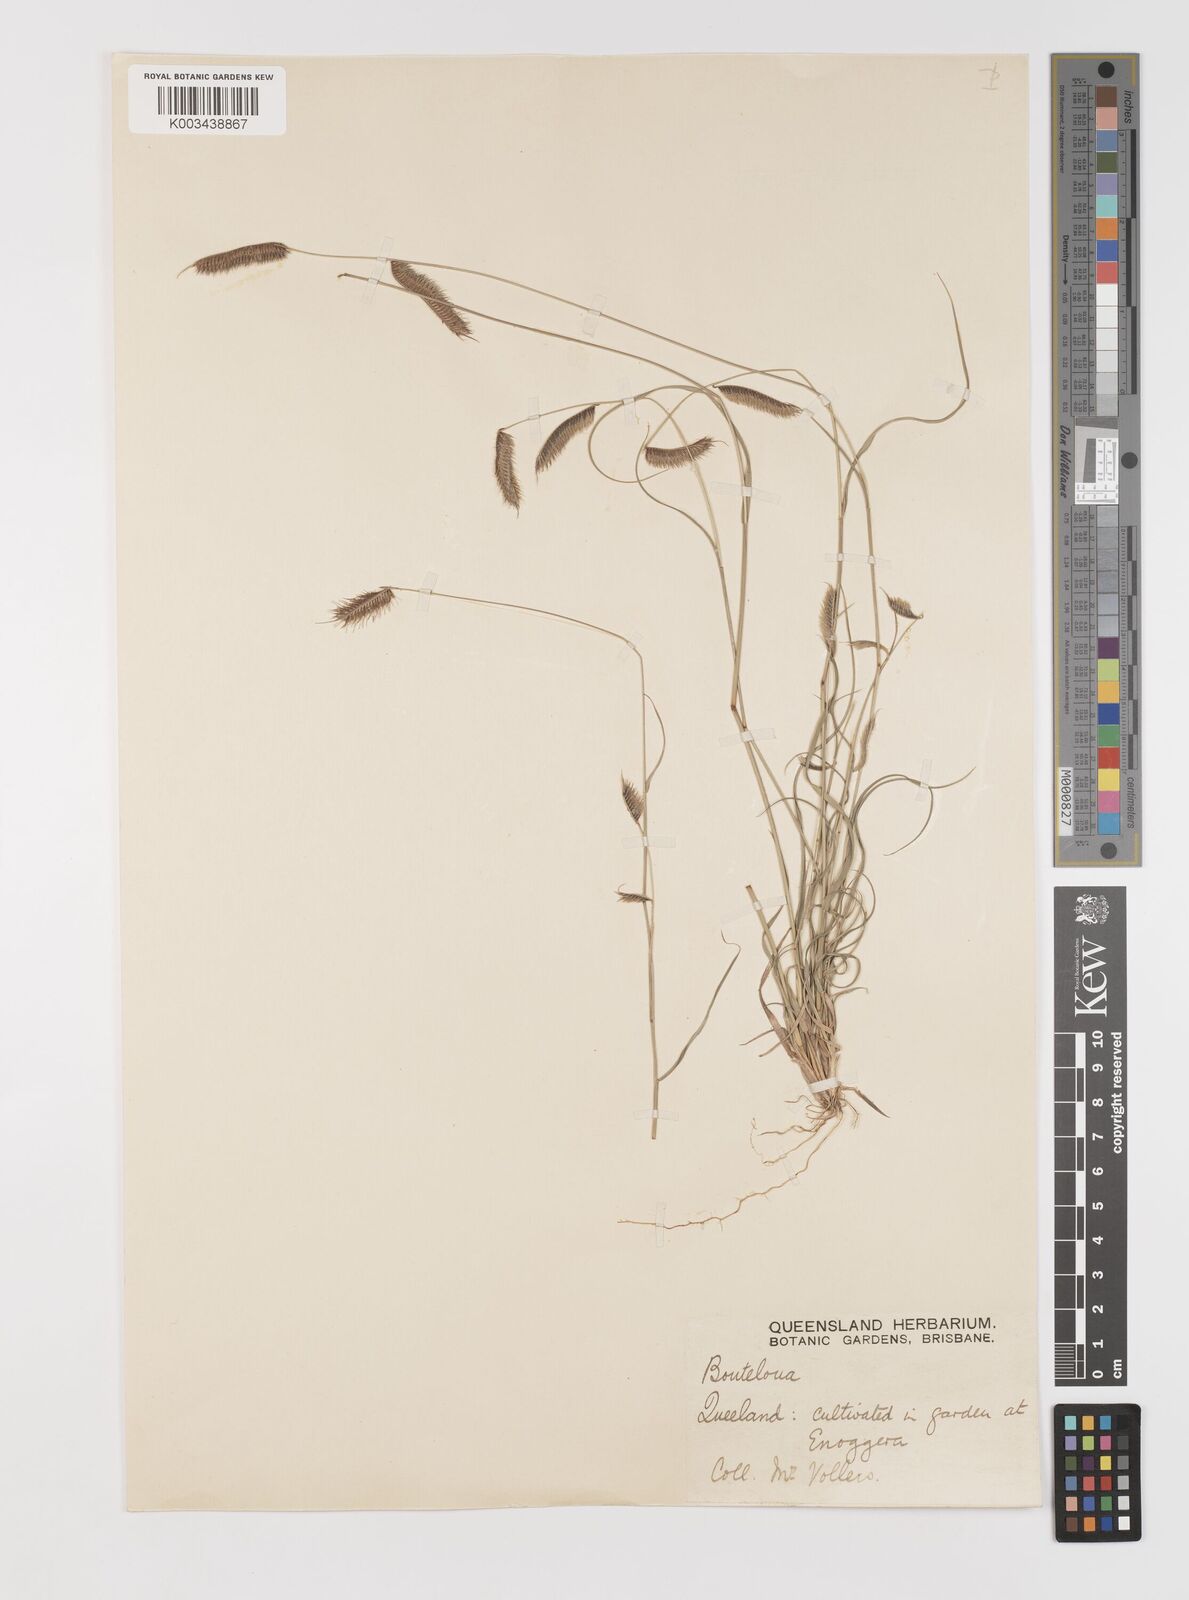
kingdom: Plantae
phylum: Tracheophyta
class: Liliopsida
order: Poales
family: Poaceae
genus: Bouteloua
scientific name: Bouteloua hirsuta
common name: Hairy grama
